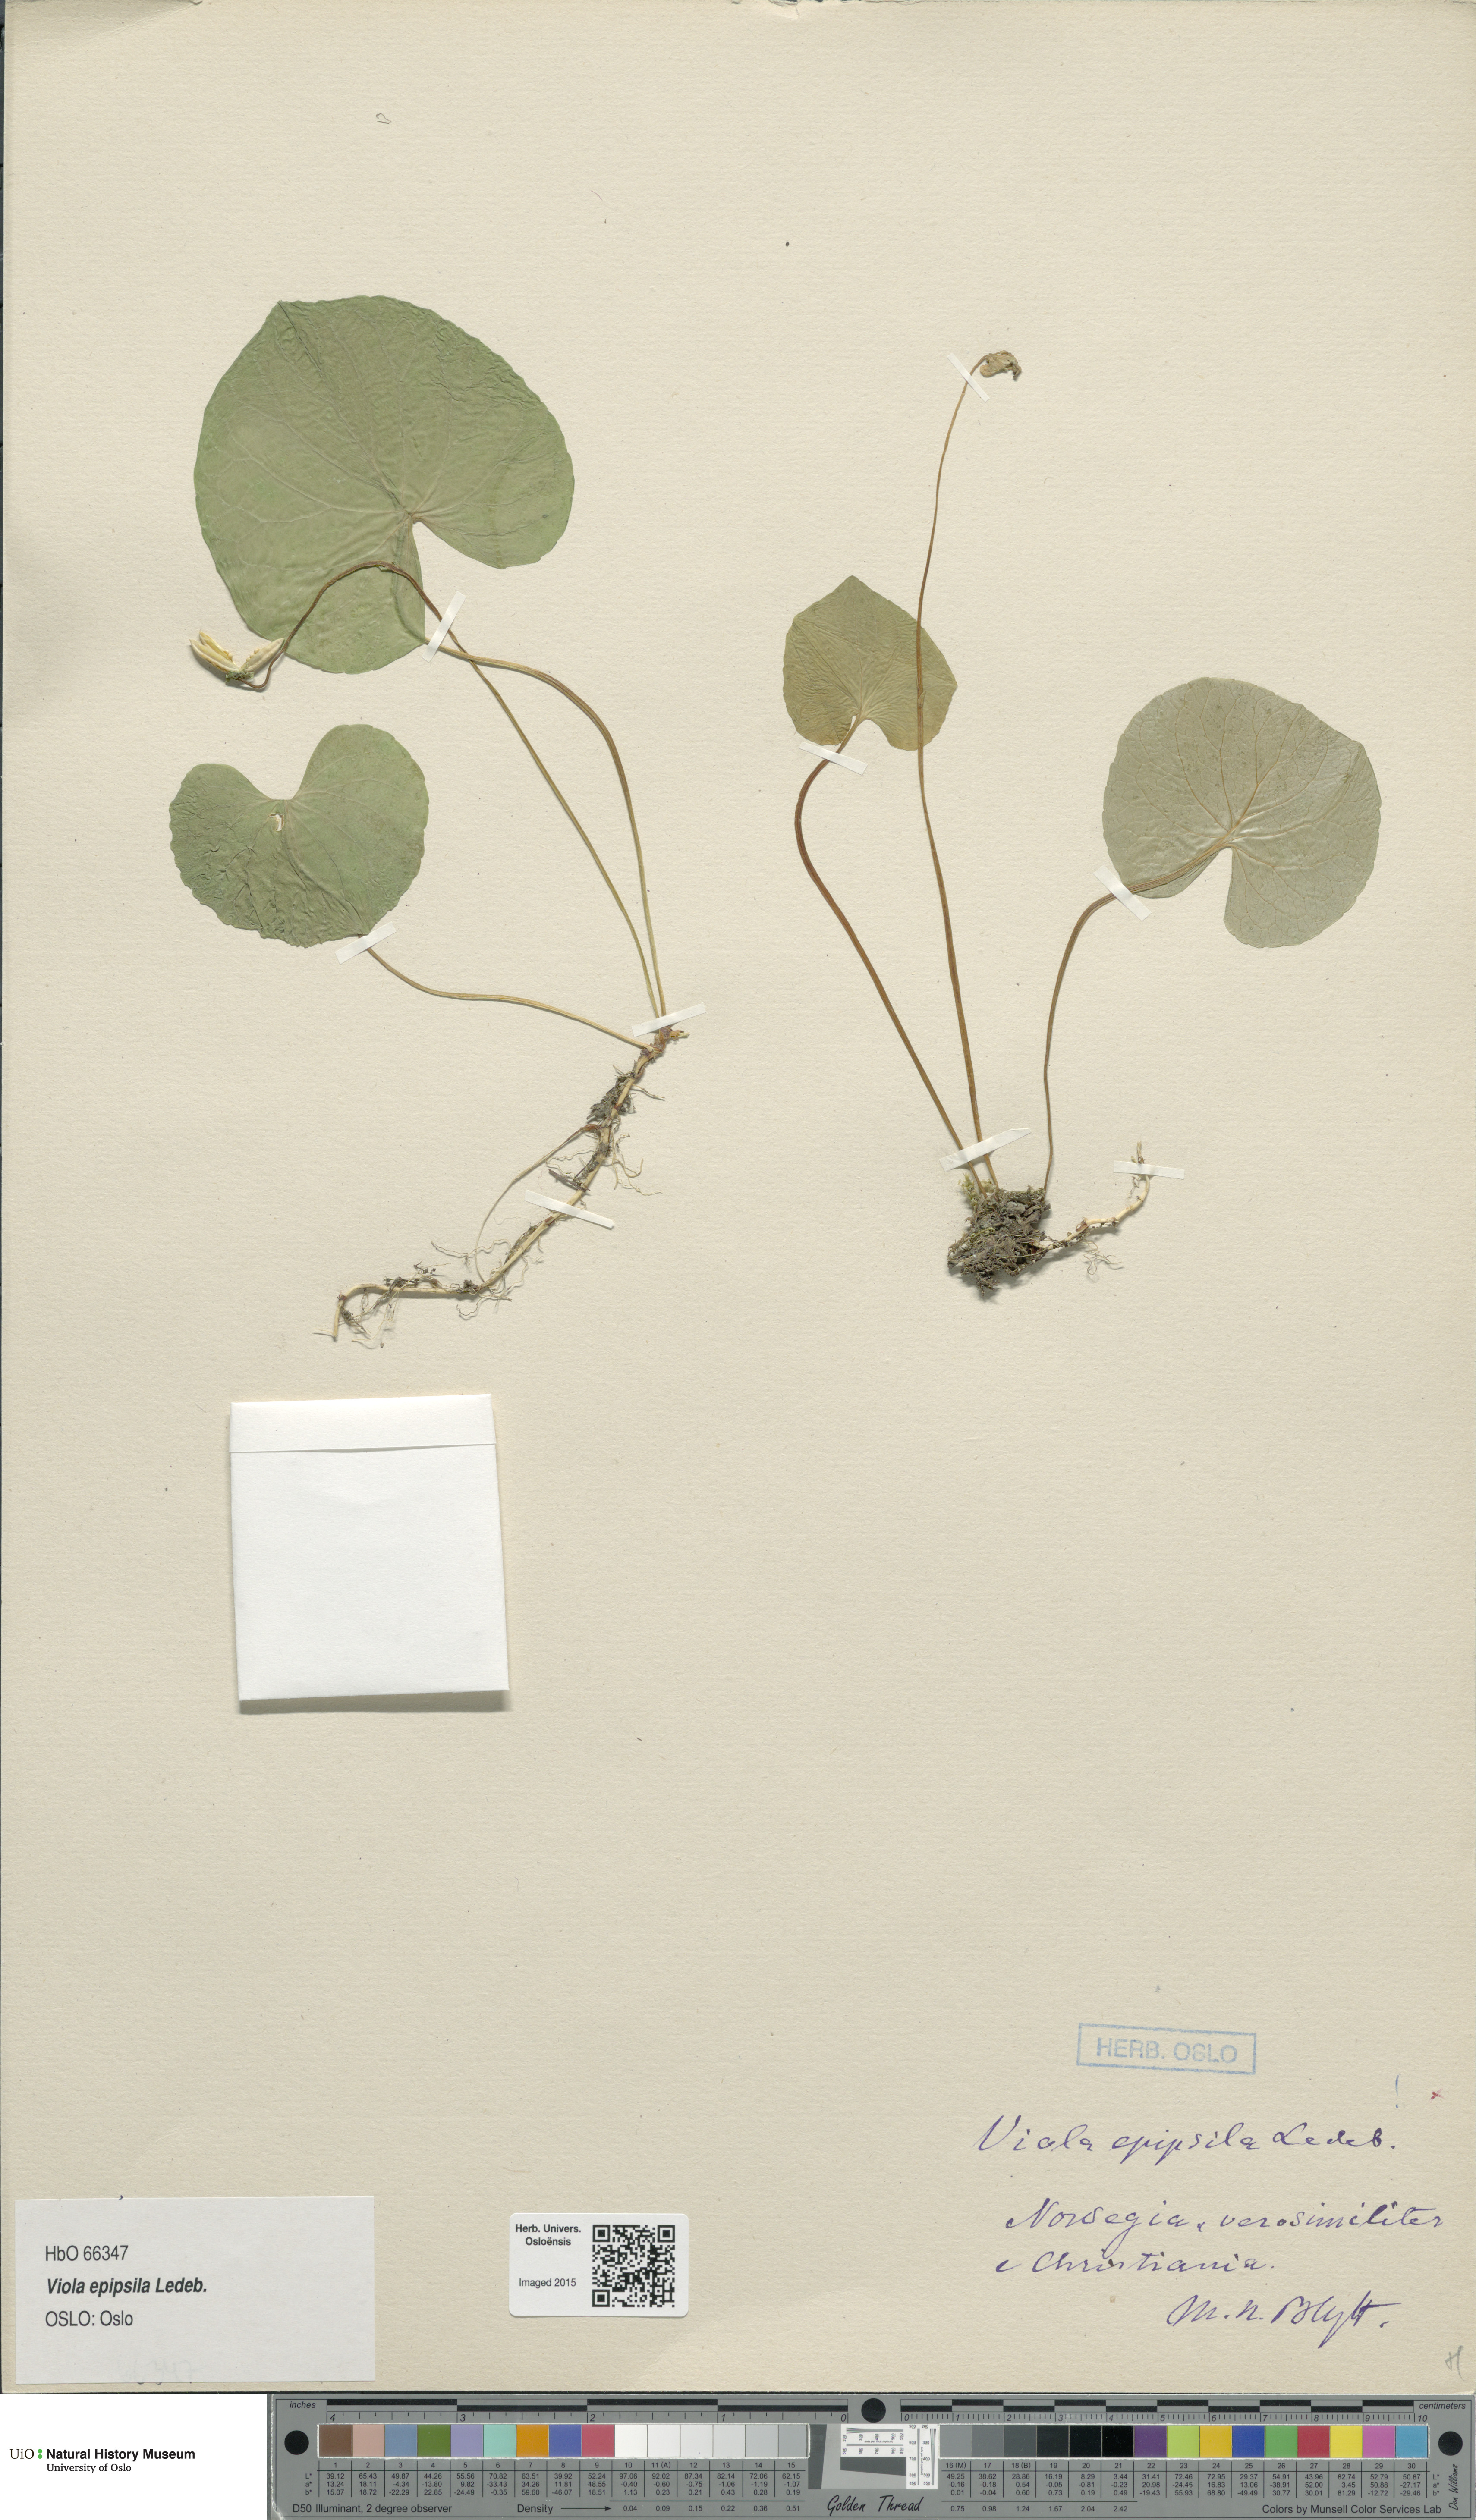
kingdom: Plantae
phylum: Tracheophyta
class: Magnoliopsida
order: Malpighiales
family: Violaceae
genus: Viola
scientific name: Viola epipsila
